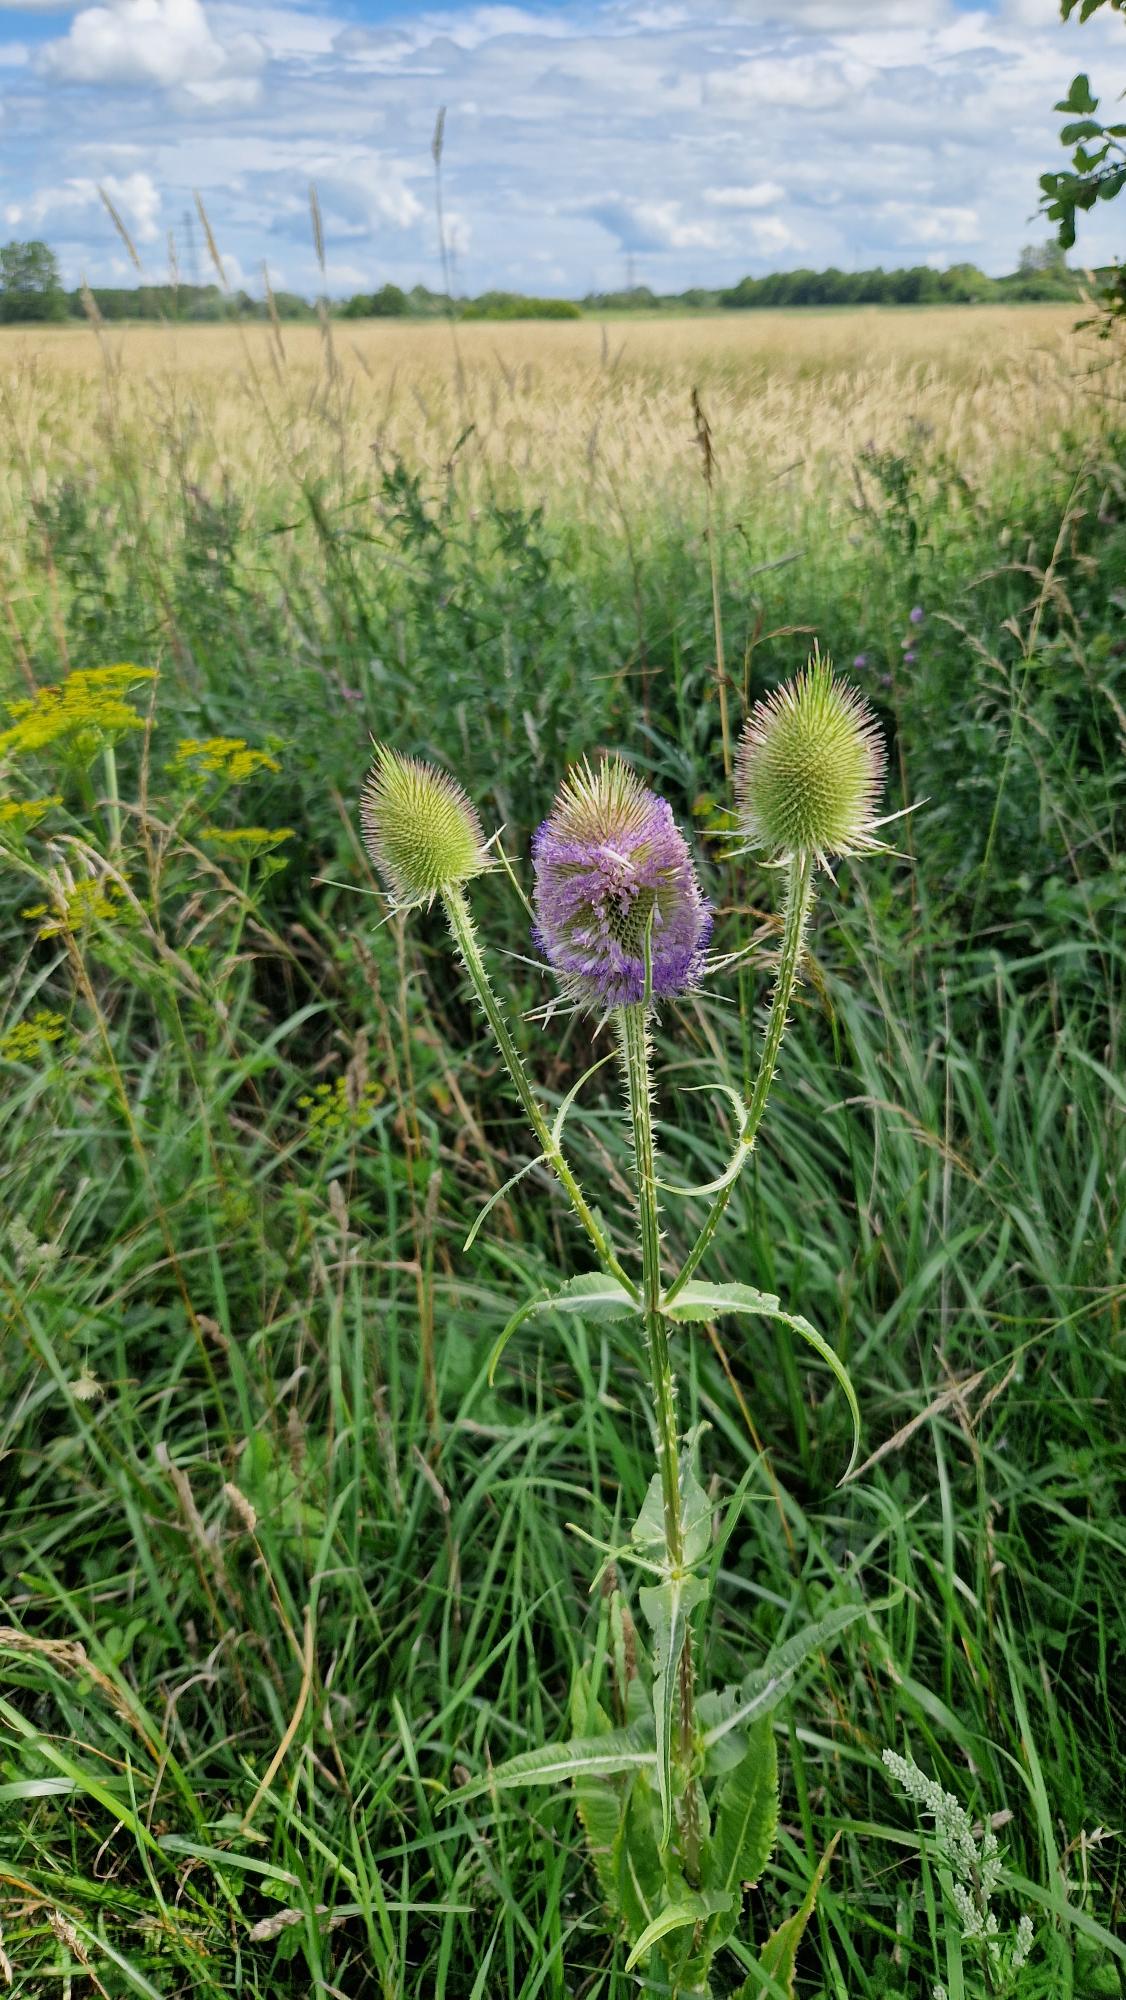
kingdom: Plantae
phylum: Tracheophyta
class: Magnoliopsida
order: Dipsacales
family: Caprifoliaceae
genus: Dipsacus
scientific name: Dipsacus fullonum
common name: Gærde-kartebolle
